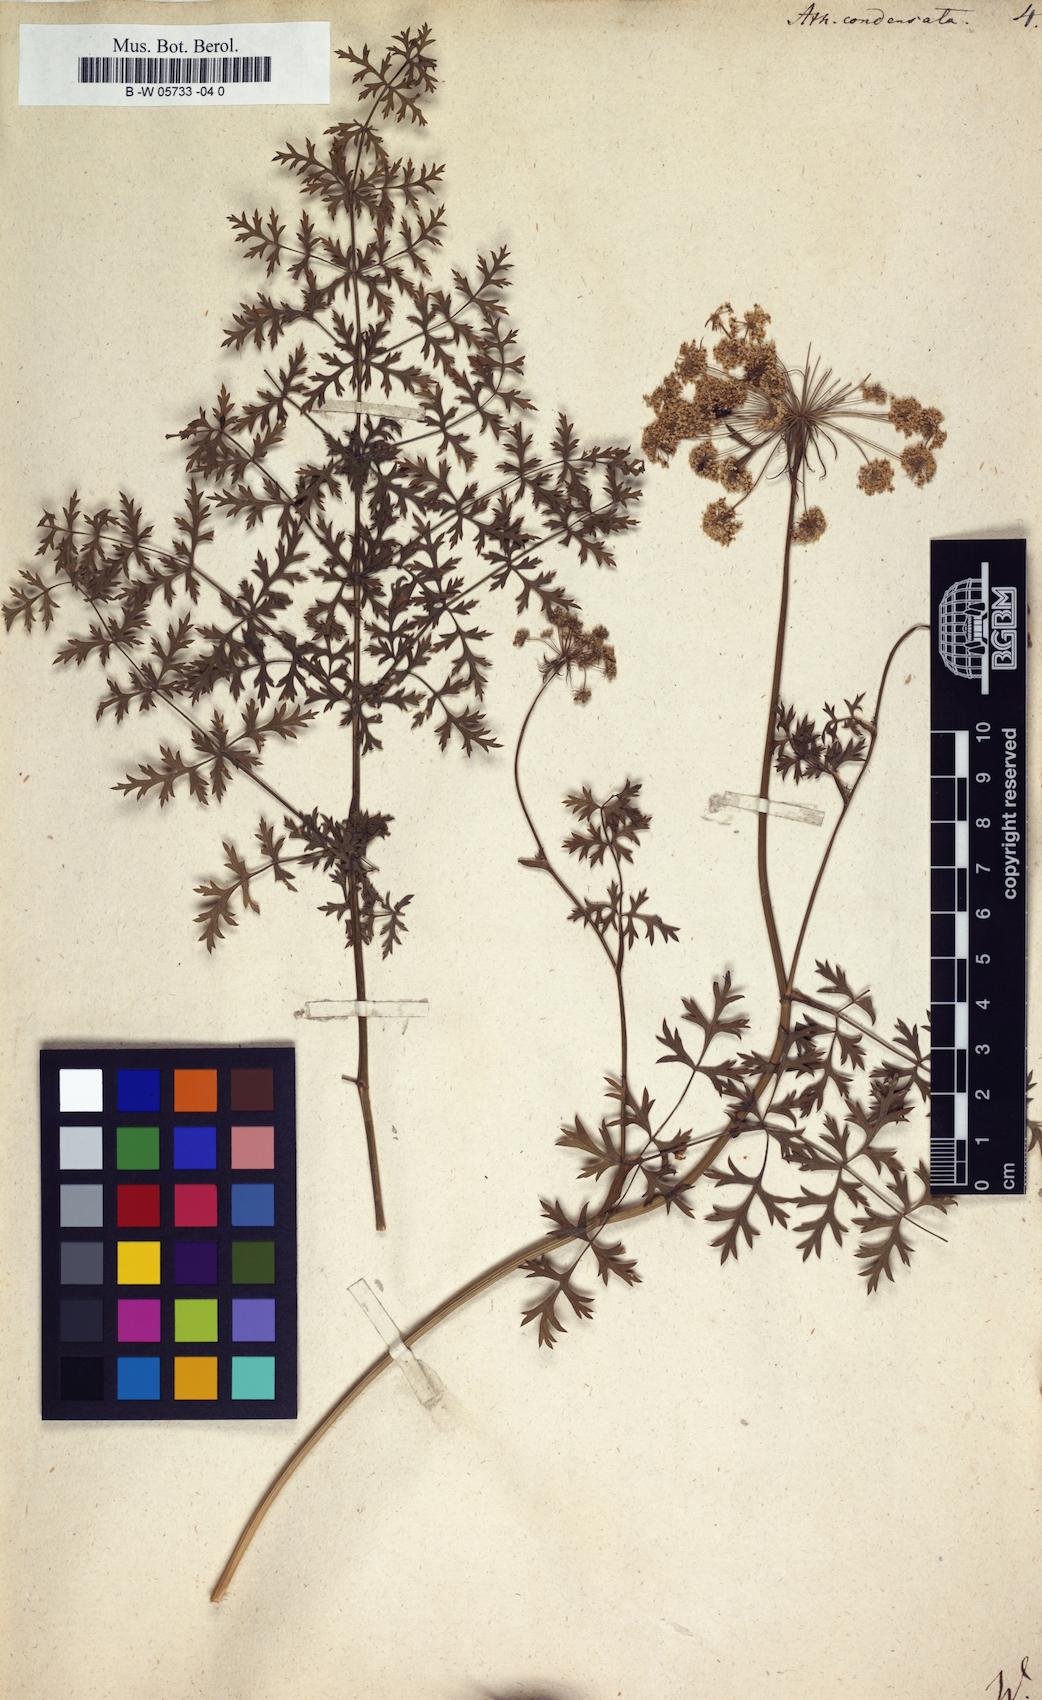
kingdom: Plantae
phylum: Tracheophyta
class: Magnoliopsida
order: Apiales
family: Apiaceae
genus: Seseli
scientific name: Seseli condensatum
